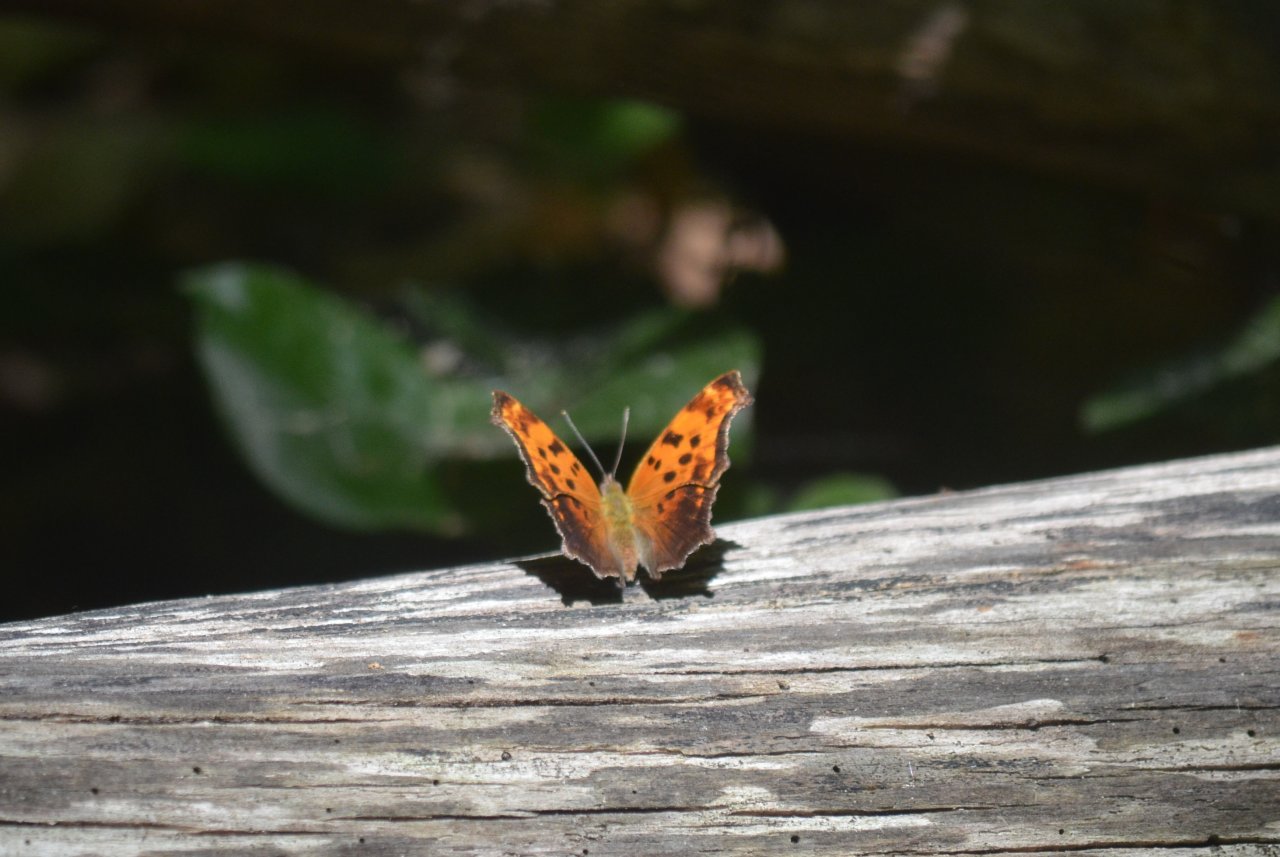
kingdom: Animalia
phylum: Arthropoda
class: Insecta
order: Lepidoptera
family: Nymphalidae
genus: Polygonia
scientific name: Polygonia comma
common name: Eastern Comma
